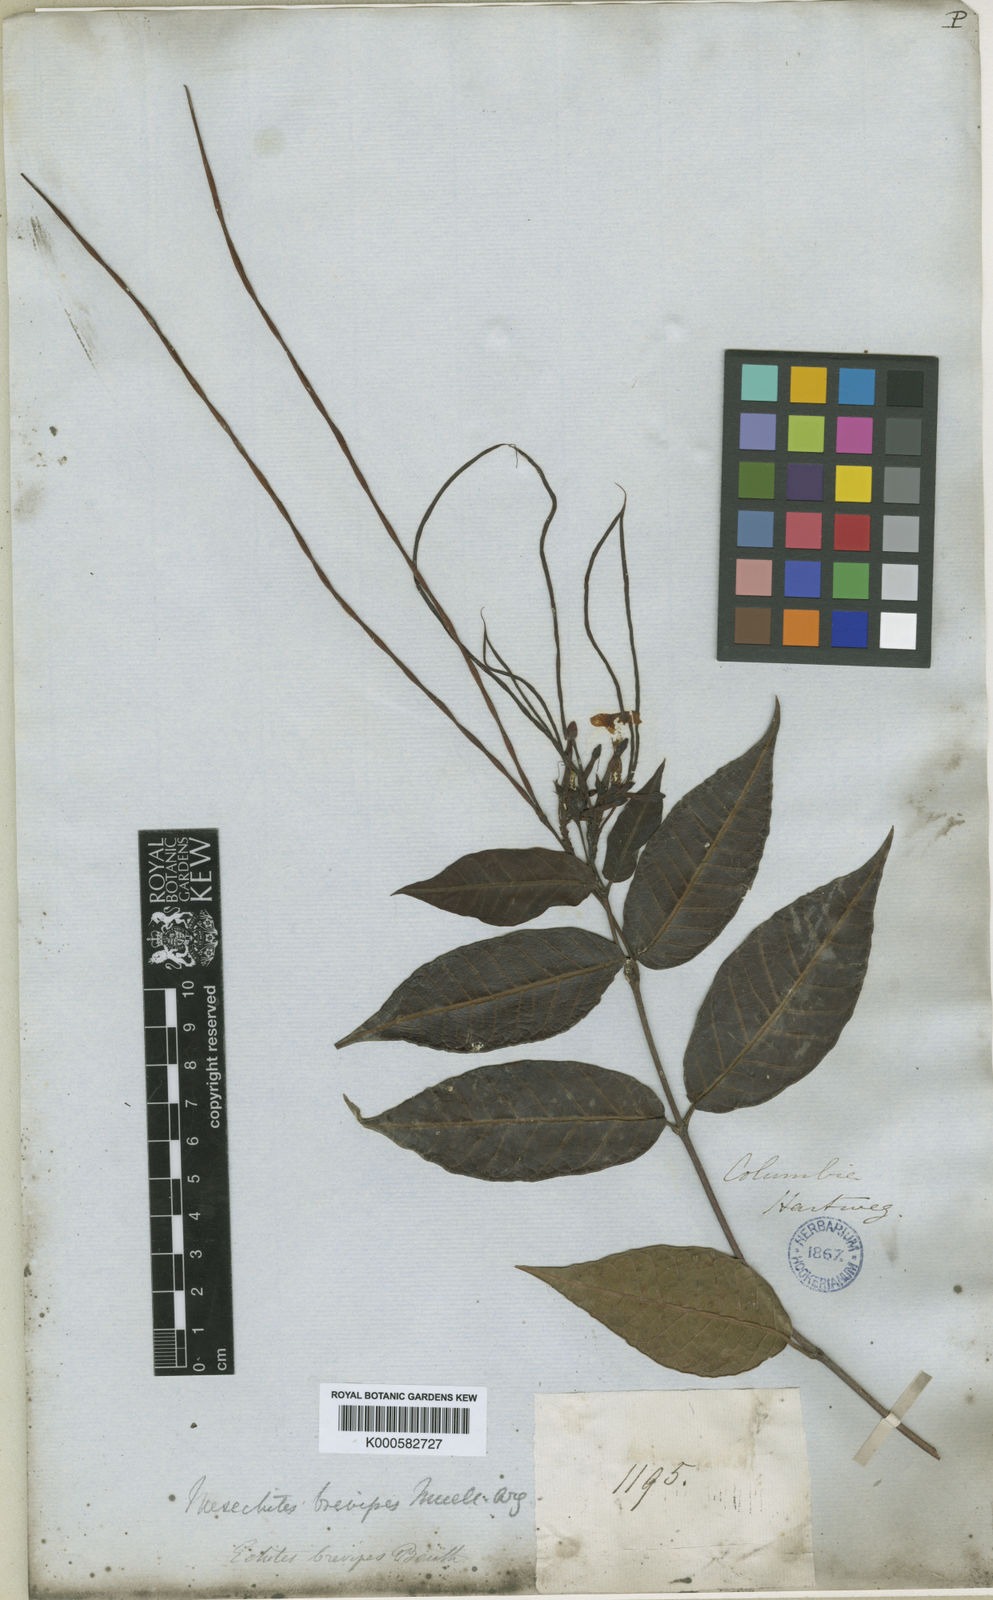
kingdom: Plantae
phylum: Tracheophyta
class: Magnoliopsida
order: Gentianales
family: Apocynaceae
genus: Mesechites
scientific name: Mesechites citrifolius
